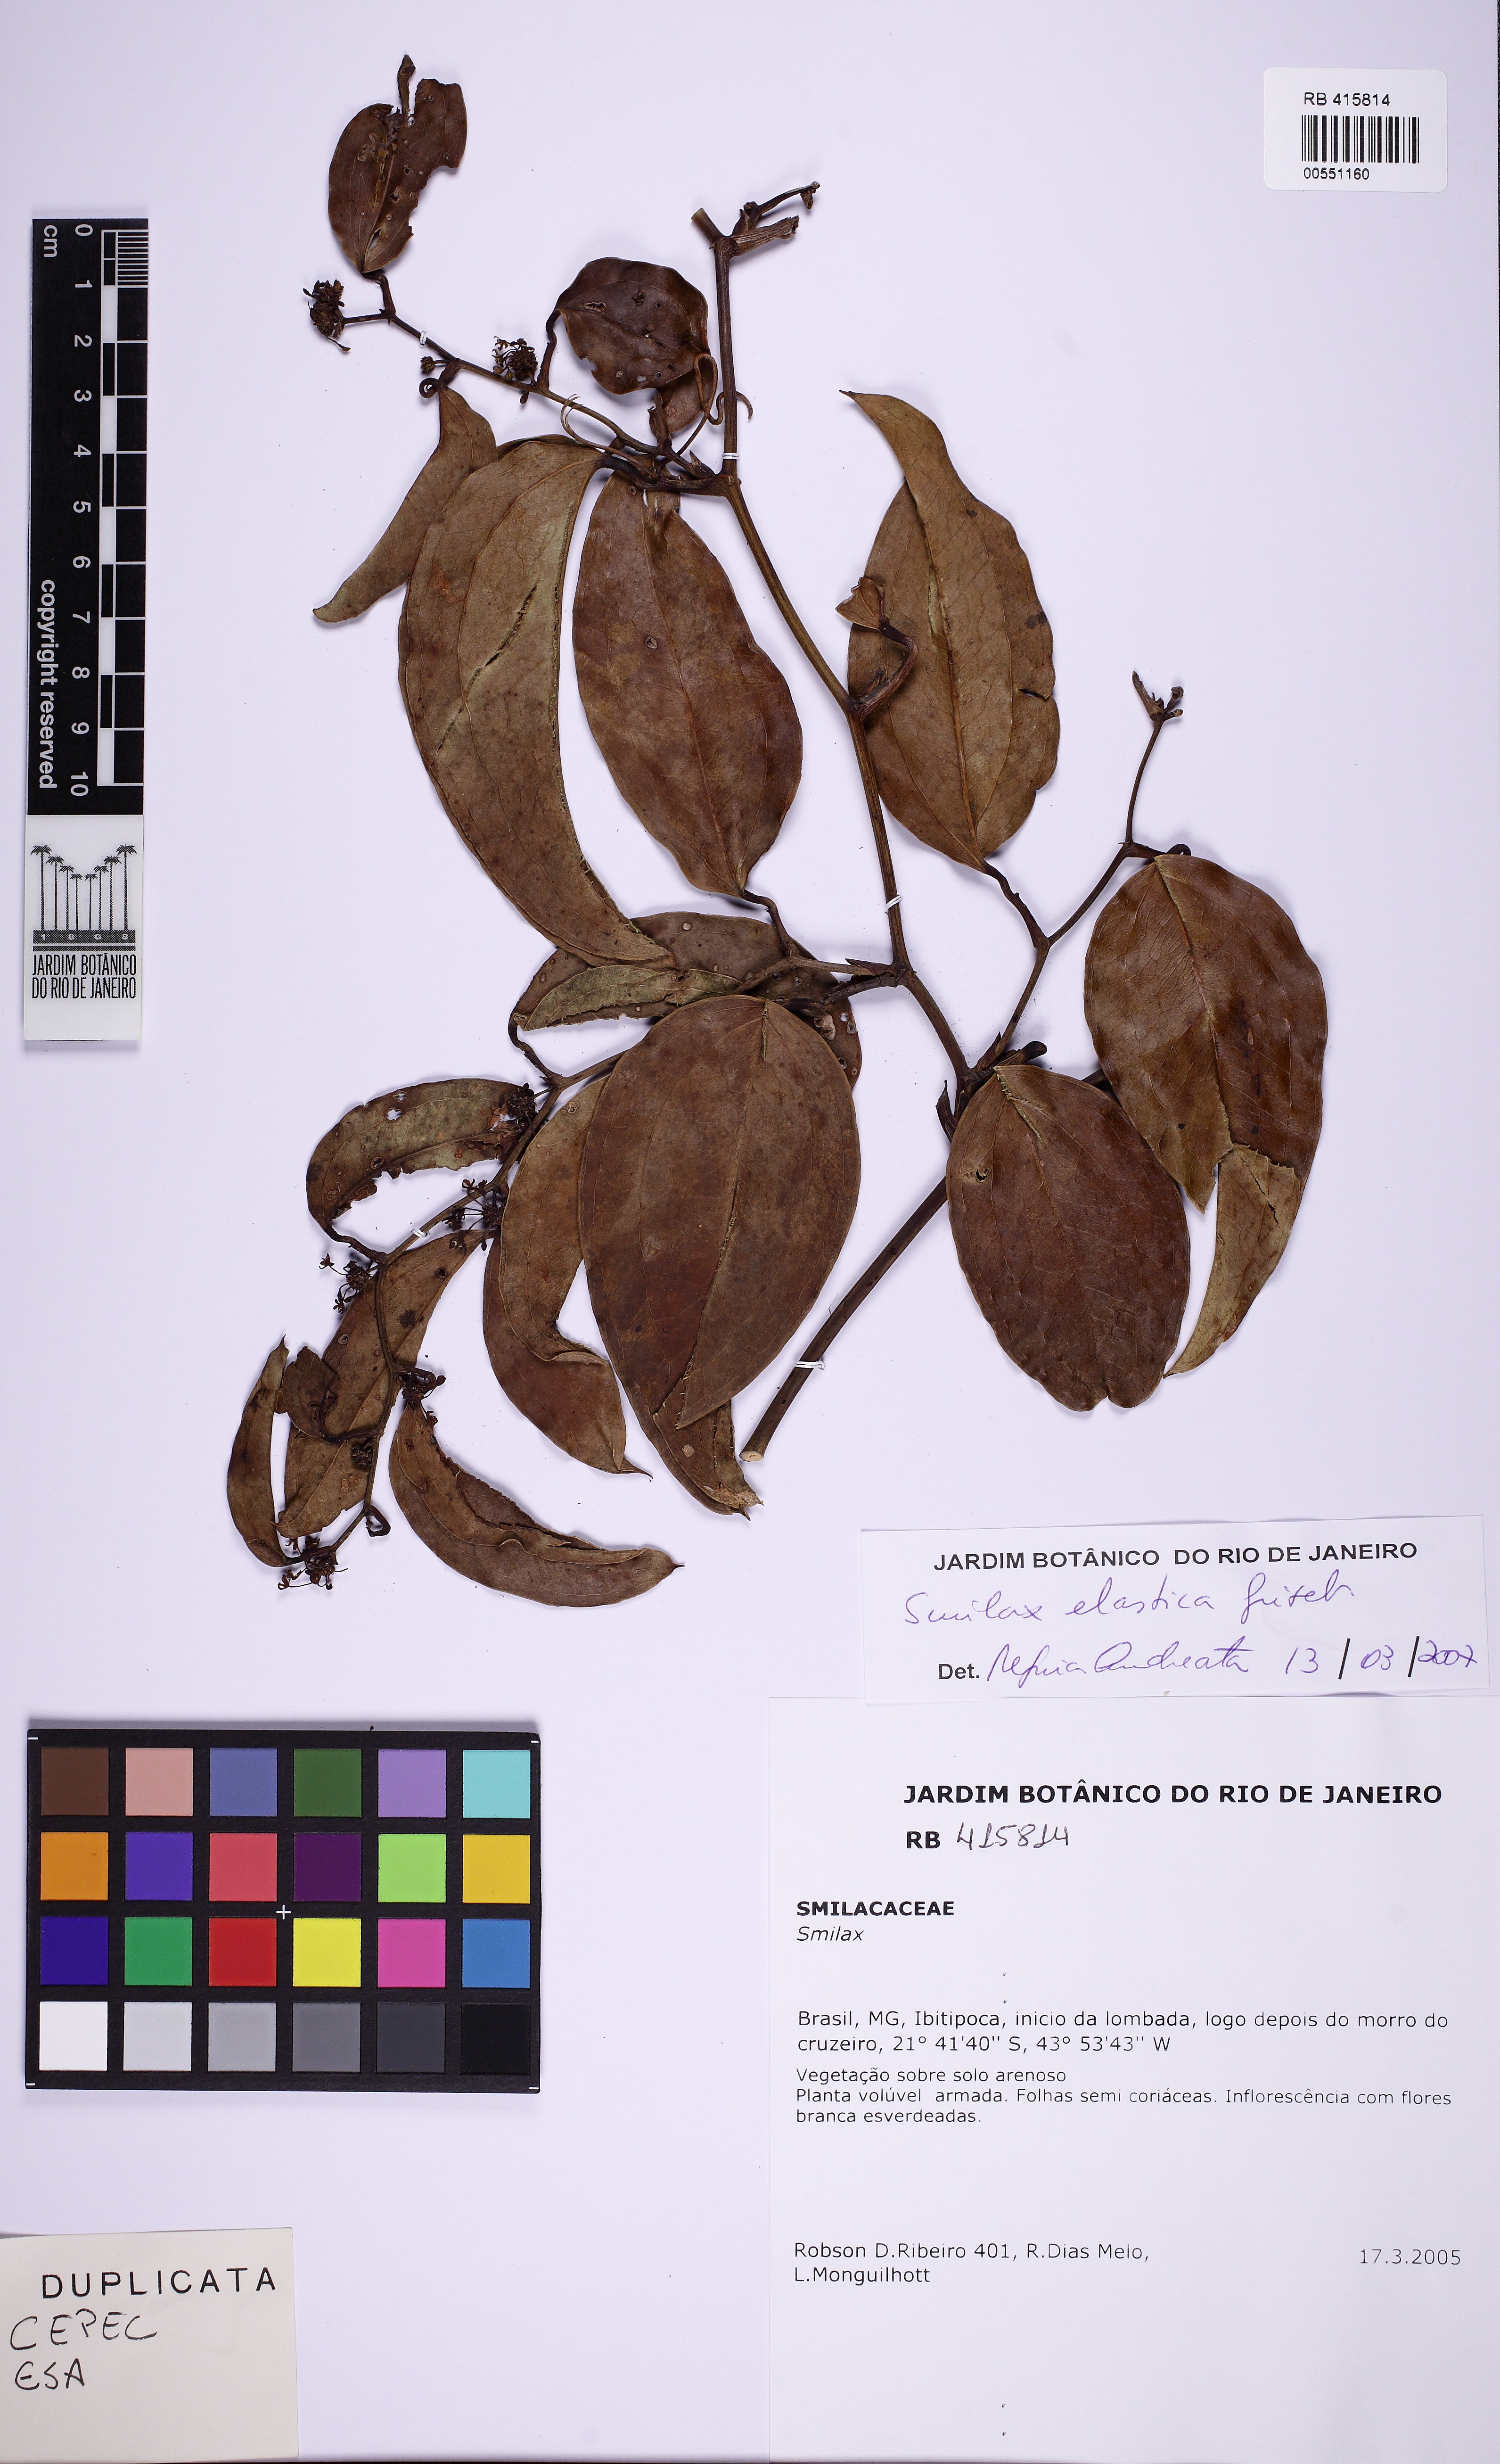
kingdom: Plantae
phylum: Tracheophyta
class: Liliopsida
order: Liliales
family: Smilacaceae
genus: Smilax
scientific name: Smilax elastica
